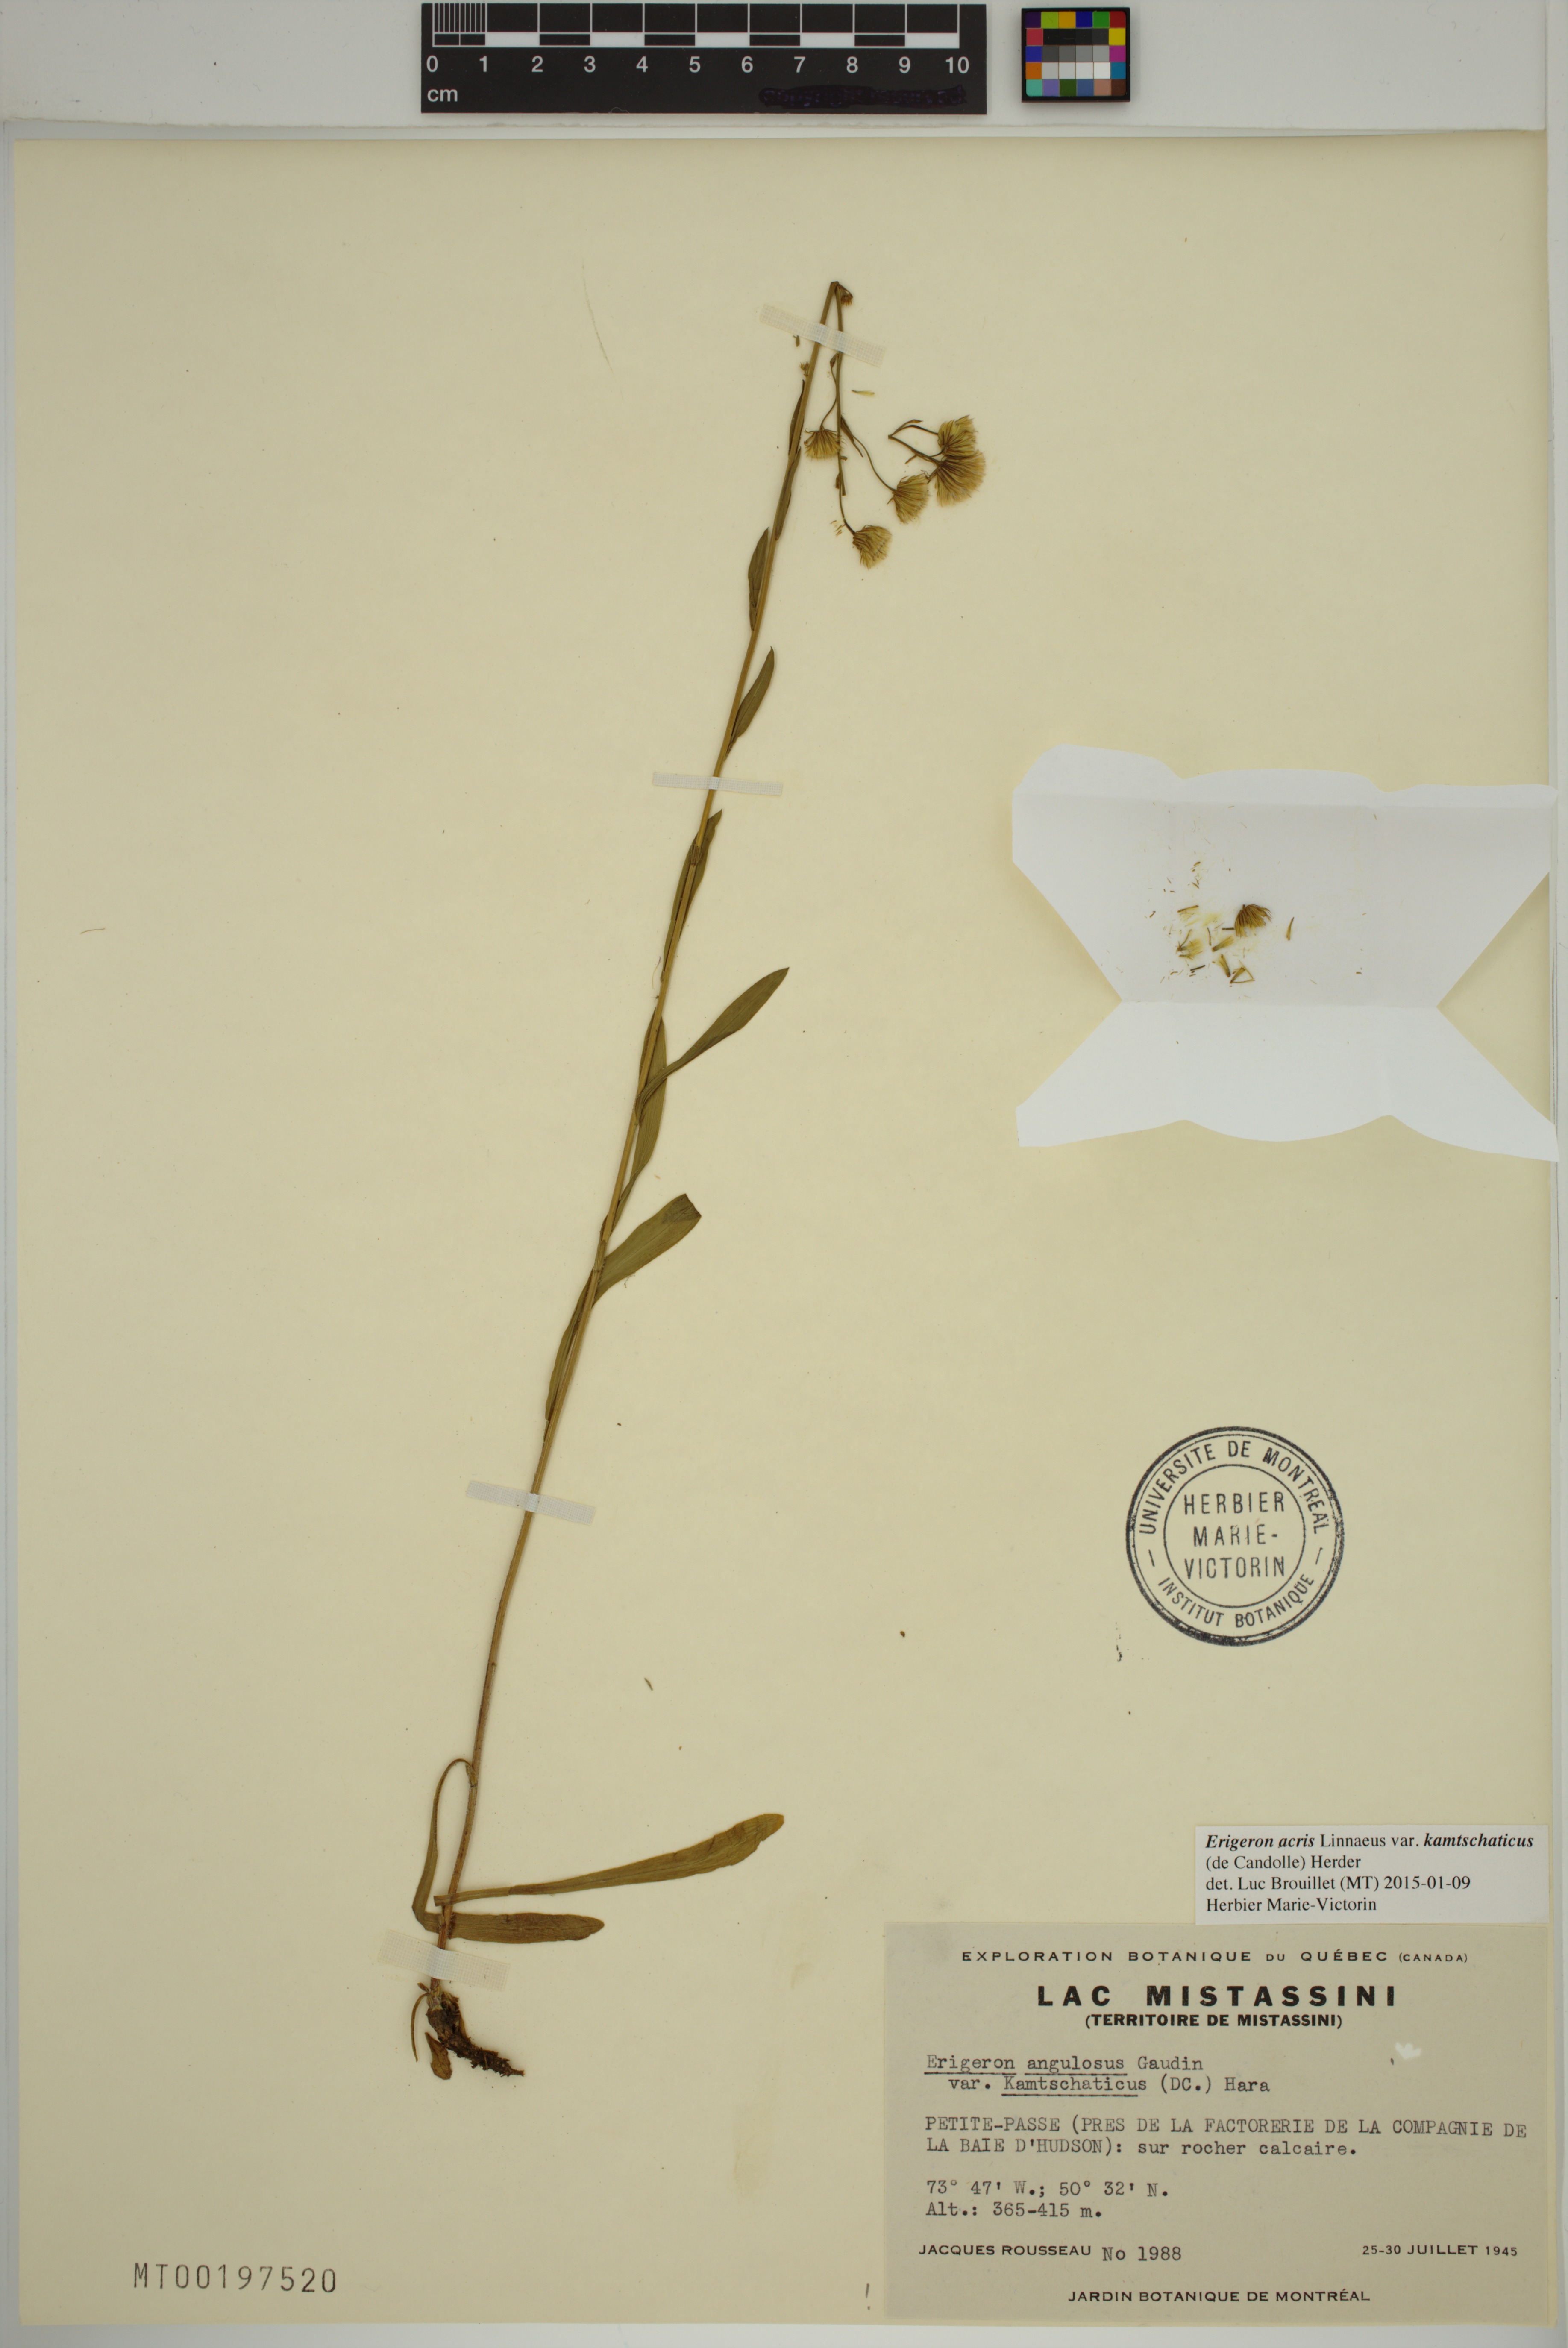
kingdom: Plantae
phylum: Tracheophyta
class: Magnoliopsida
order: Asterales
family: Asteraceae
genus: Erigeron
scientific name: Erigeron kamtschaticus
